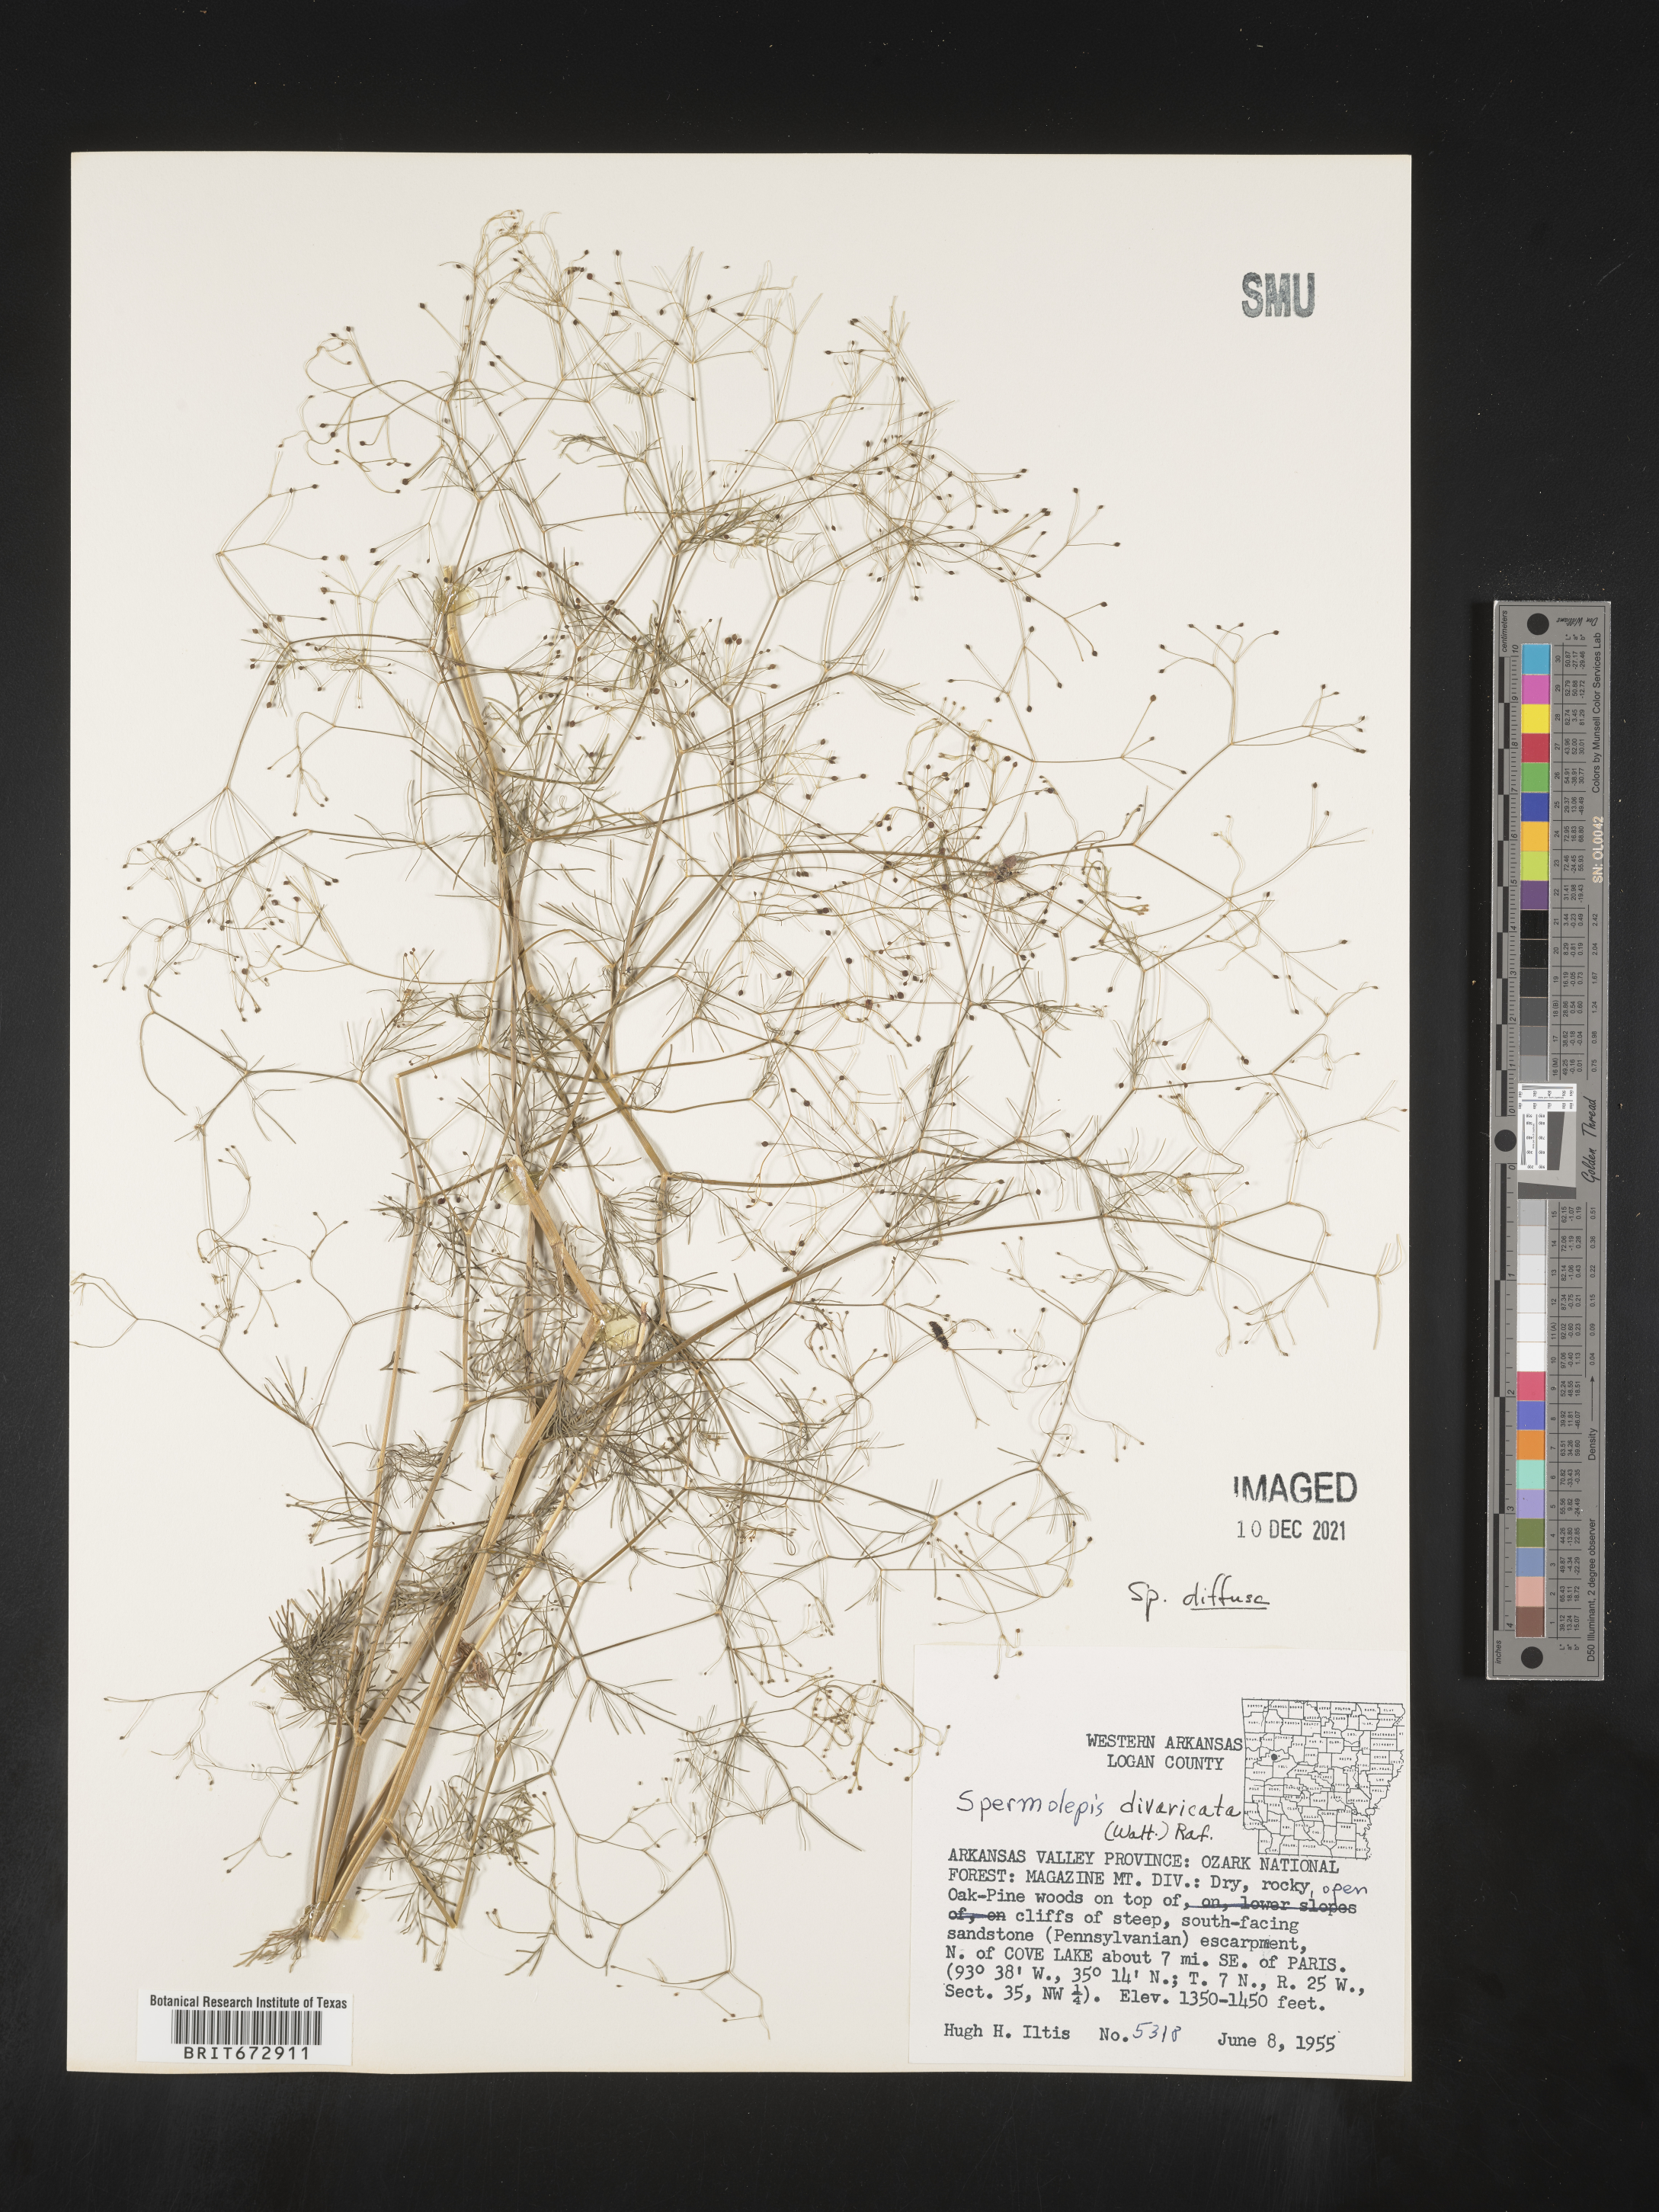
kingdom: Plantae
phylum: Tracheophyta
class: Magnoliopsida
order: Apiales
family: Apiaceae
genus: Spermolepis
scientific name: Spermolepis diffusa
